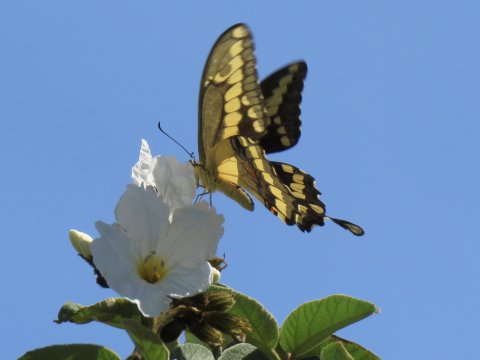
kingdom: Animalia
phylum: Arthropoda
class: Insecta
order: Lepidoptera
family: Papilionidae
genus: Papilio
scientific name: Papilio rumiko
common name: Western Giant Swallowtail
